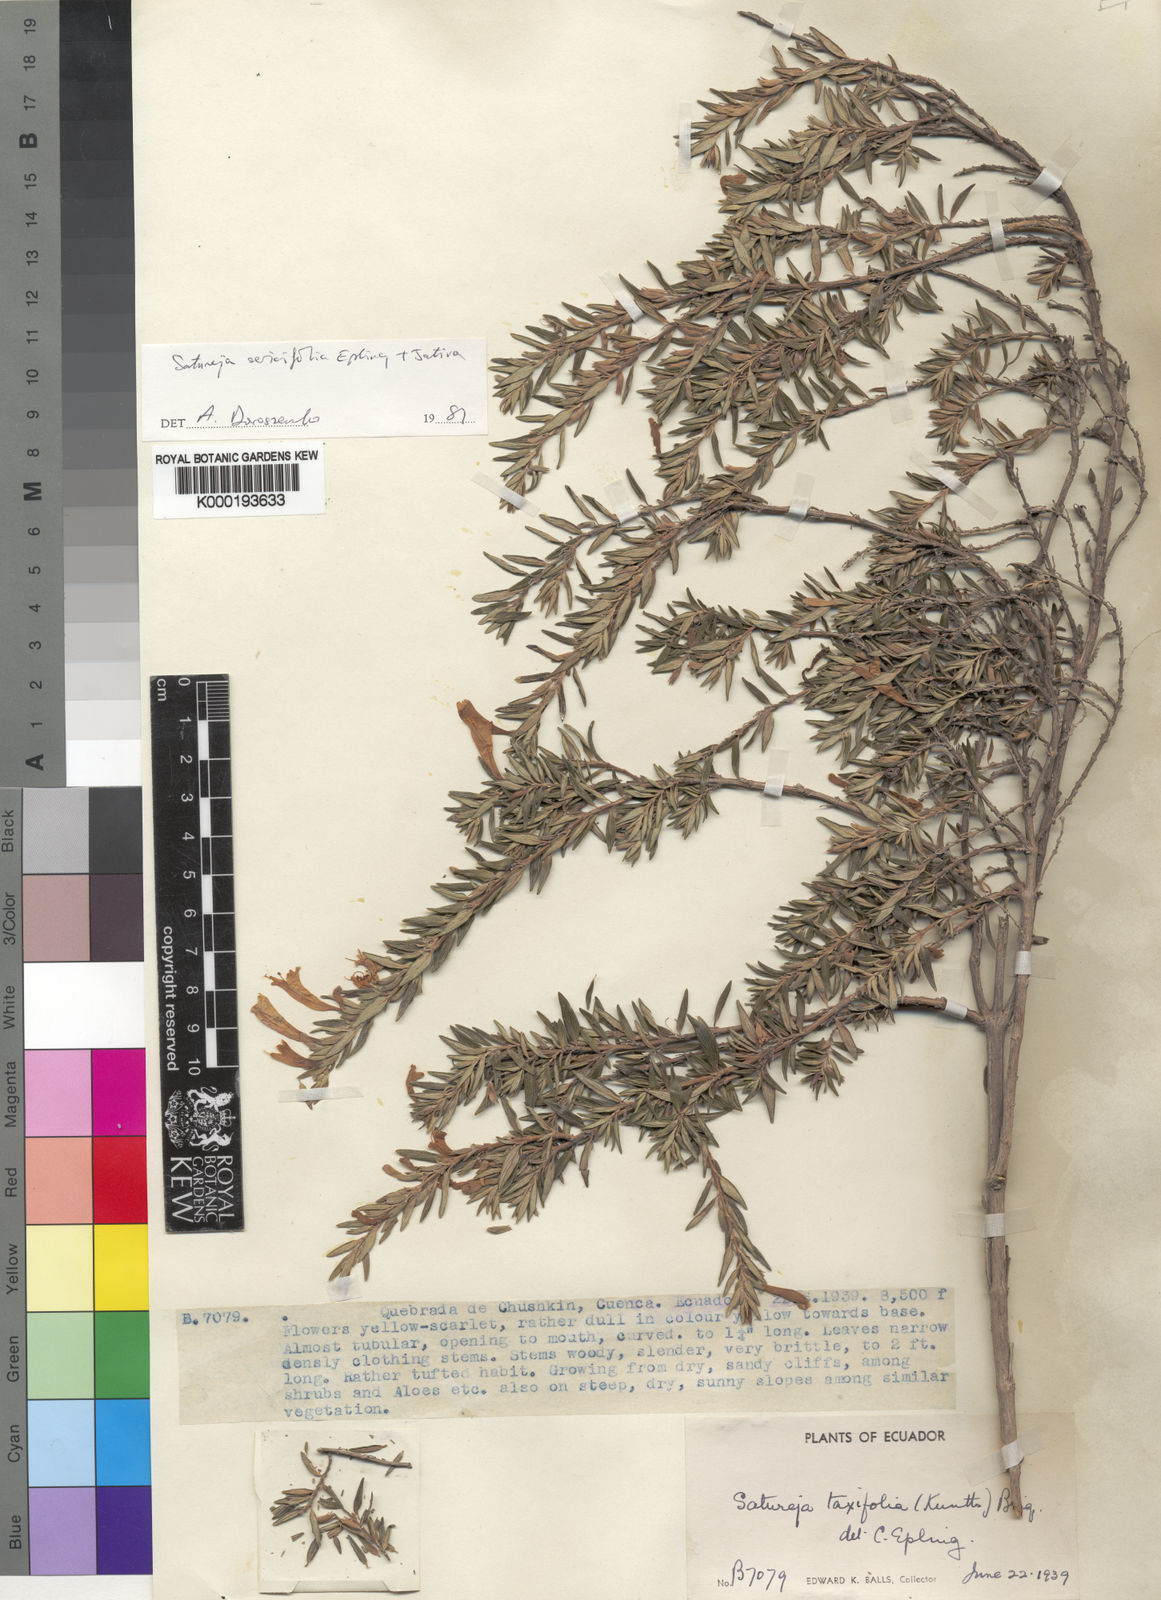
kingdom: Plantae
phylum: Tracheophyta
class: Magnoliopsida
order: Lamiales
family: Lamiaceae
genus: Clinopodium
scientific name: Clinopodium sericifolium
